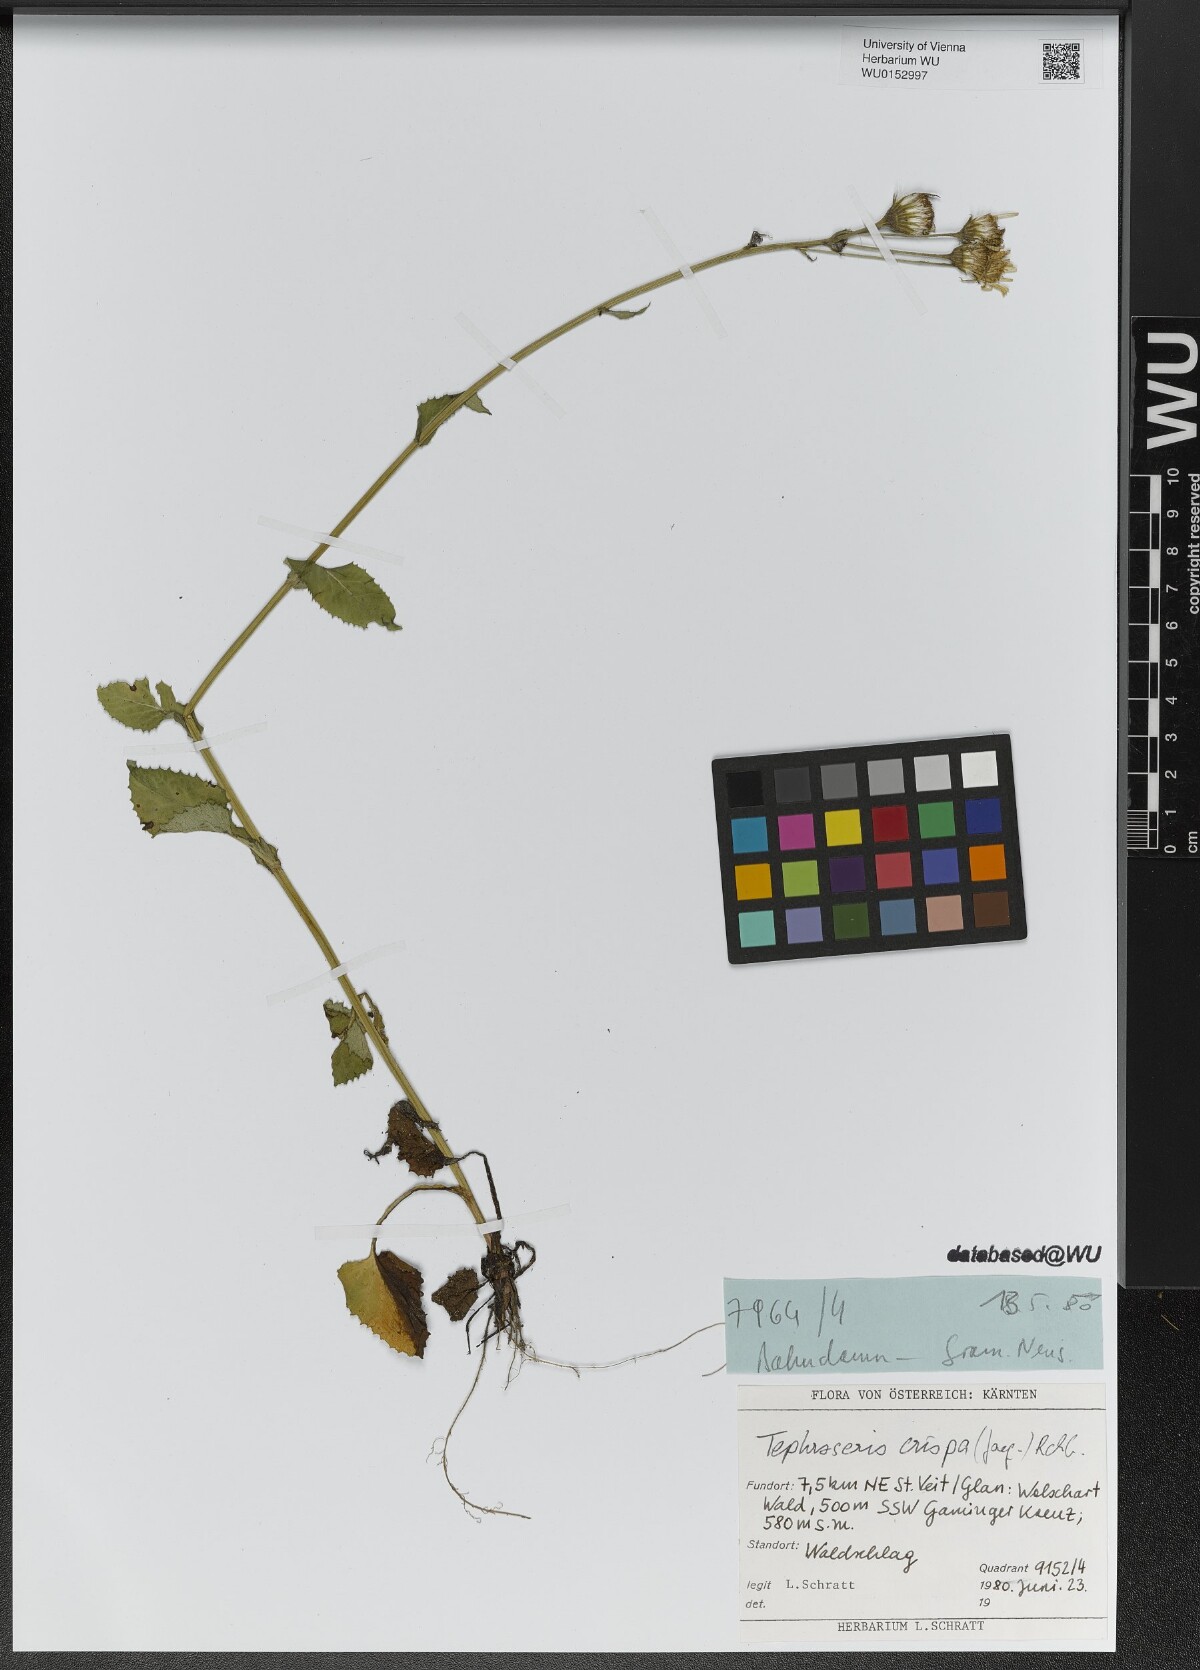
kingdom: Plantae
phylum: Tracheophyta
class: Magnoliopsida
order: Asterales
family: Asteraceae
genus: Tephroseris
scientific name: Tephroseris crispa
